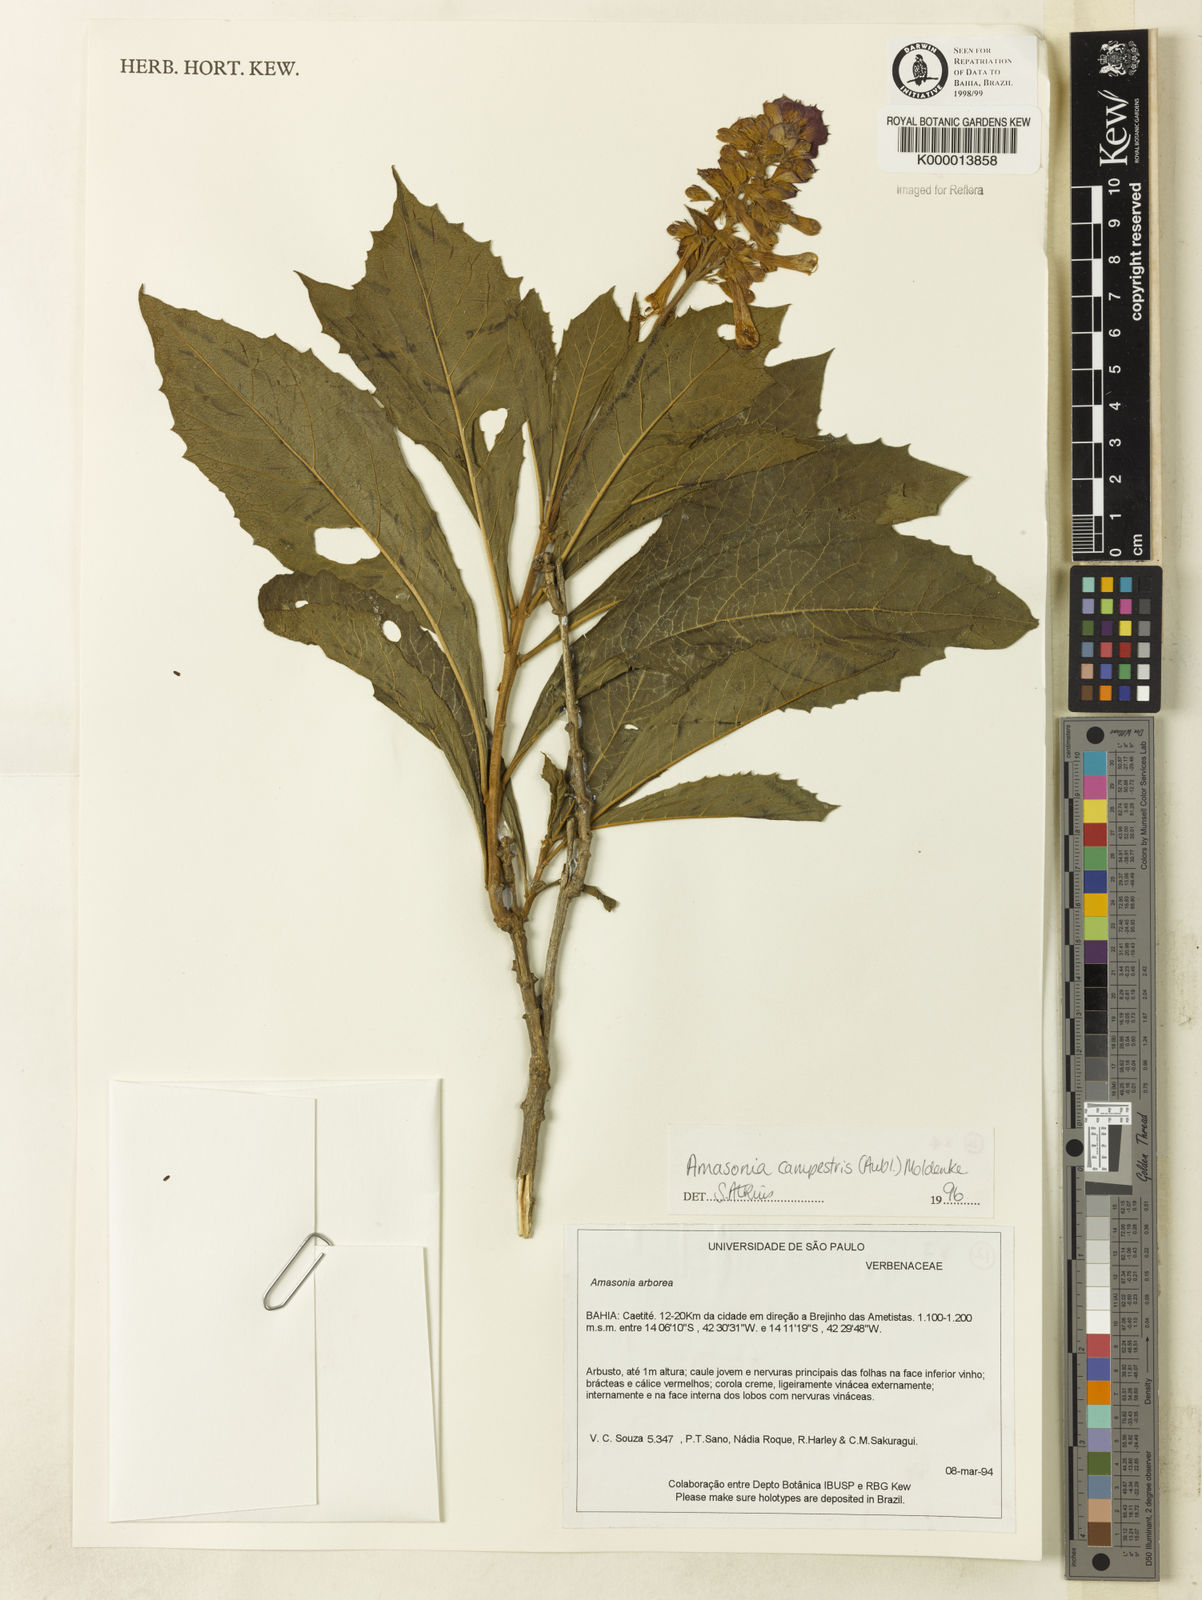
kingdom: Plantae
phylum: Tracheophyta
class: Magnoliopsida
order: Lamiales
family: Lamiaceae
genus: Amasonia
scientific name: Amasonia campestris
